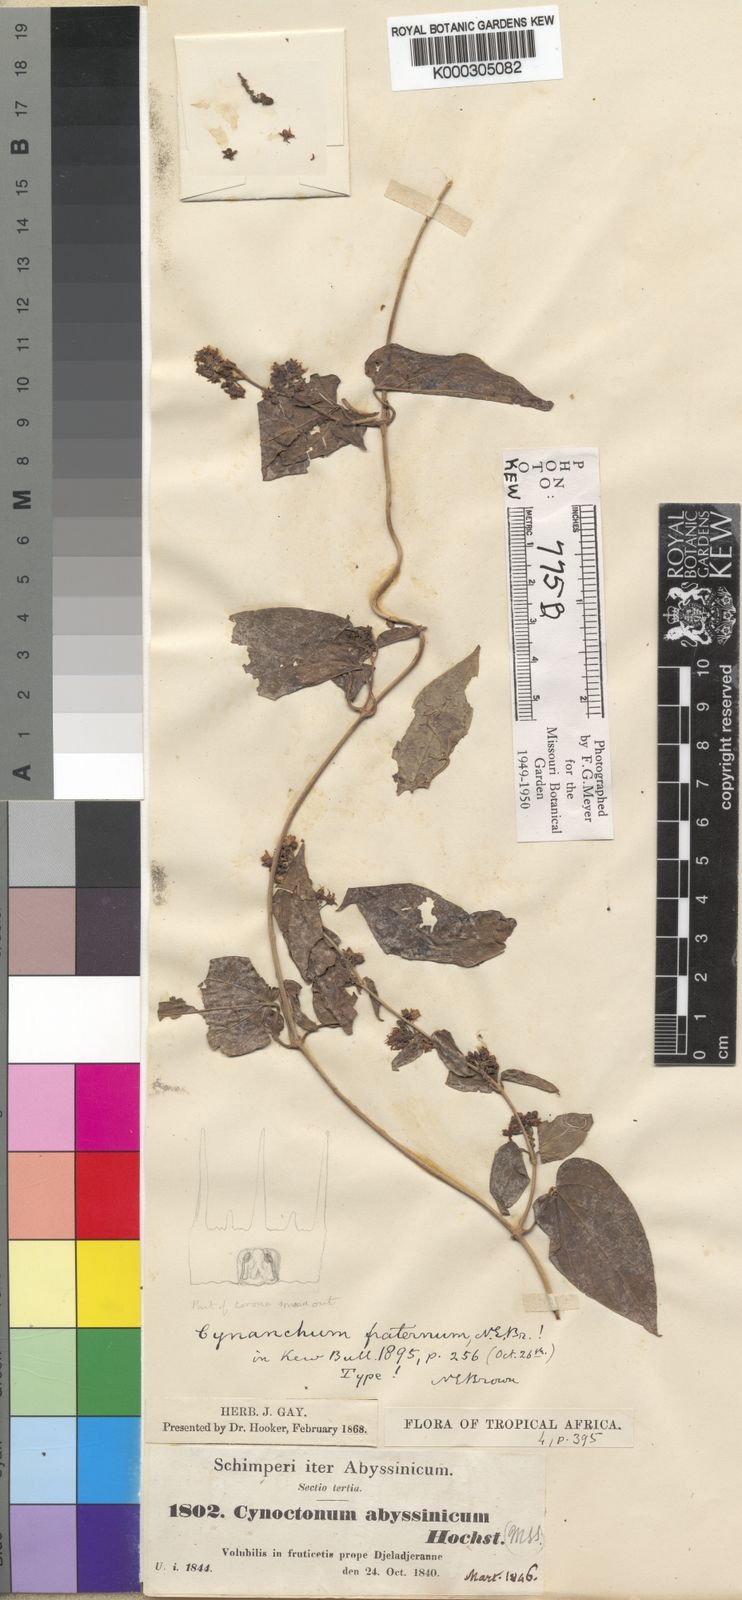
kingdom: Plantae
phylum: Tracheophyta
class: Magnoliopsida
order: Gentianales
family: Apocynaceae
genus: Cynanchum
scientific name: Cynanchum heteromorphum
